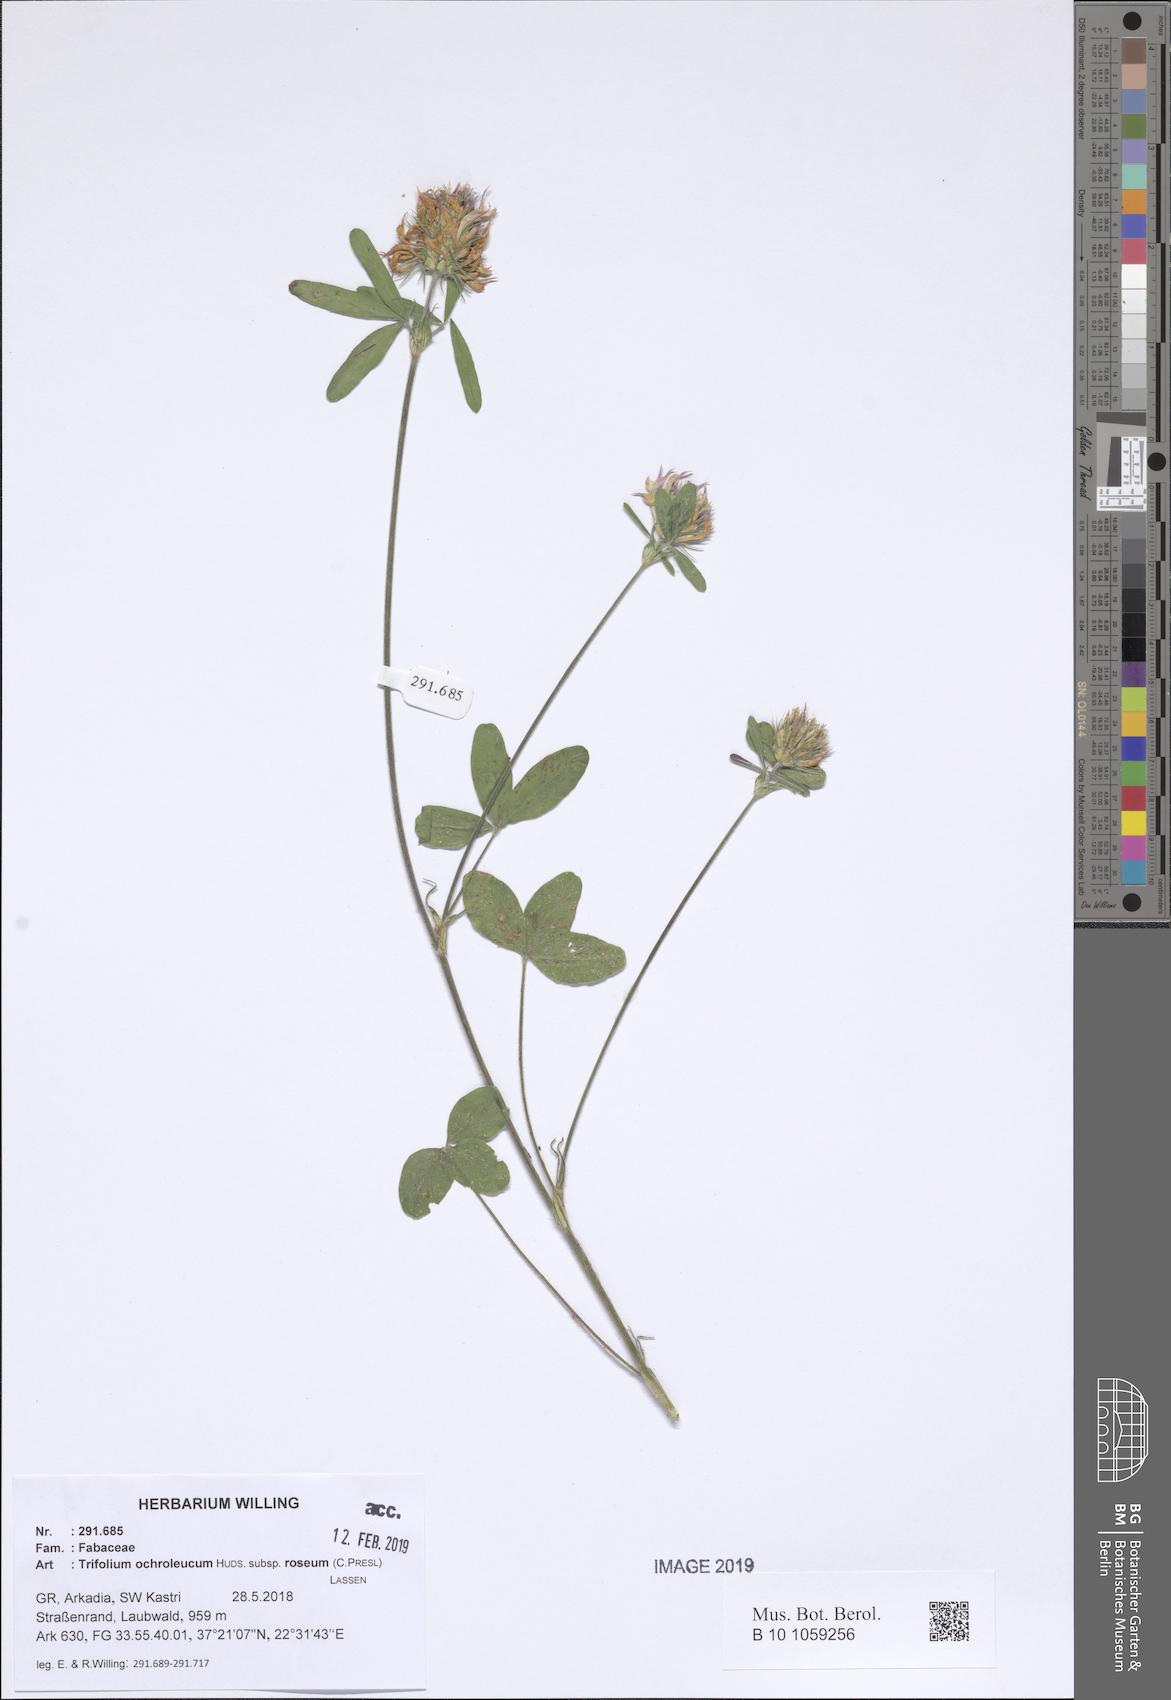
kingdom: Plantae
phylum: Tracheophyta
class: Magnoliopsida
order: Fabales
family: Fabaceae
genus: Trifolium
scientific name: Trifolium ochroleucon
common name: Sulphur clover
